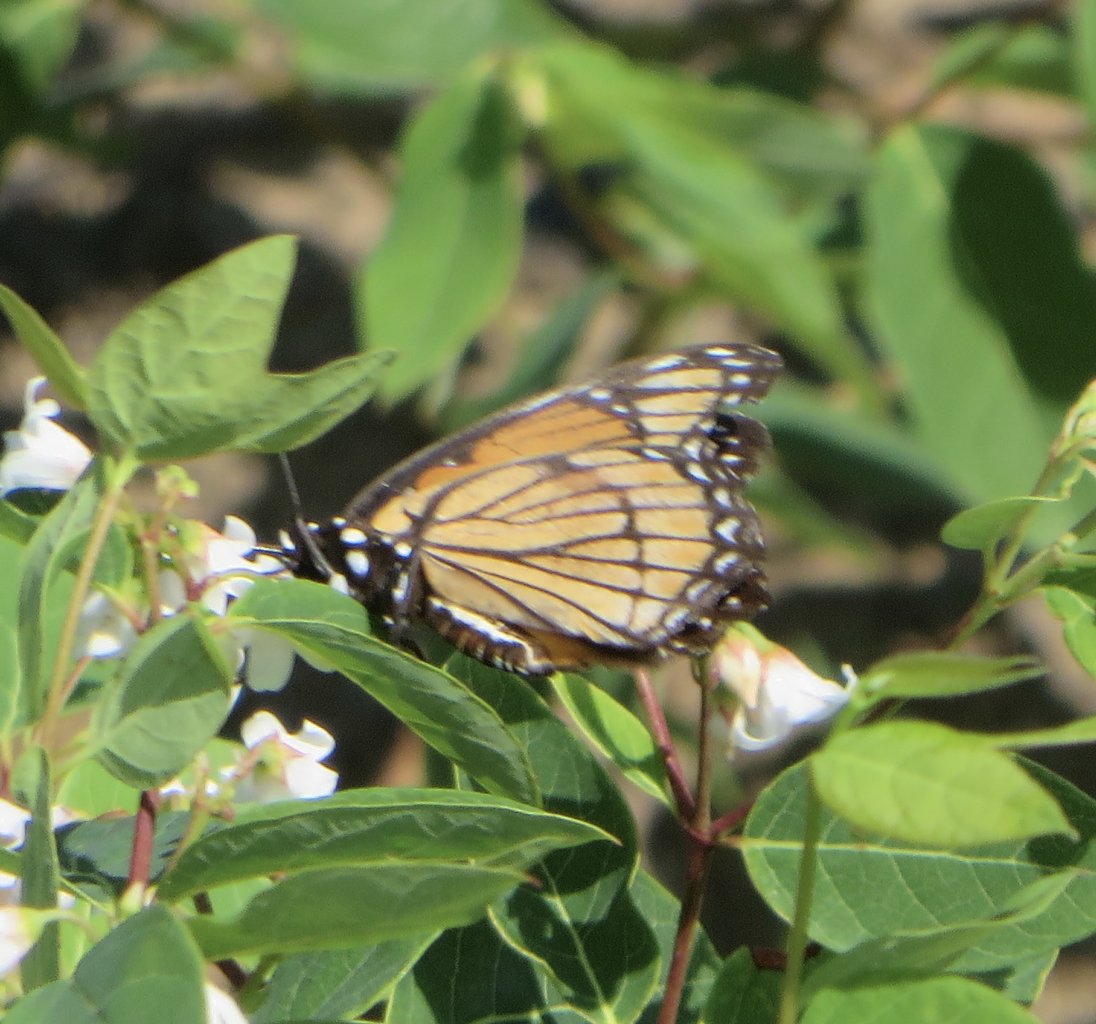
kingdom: Animalia
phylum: Arthropoda
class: Insecta
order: Lepidoptera
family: Nymphalidae
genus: Limenitis
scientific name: Limenitis archippus
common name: Viceroy
